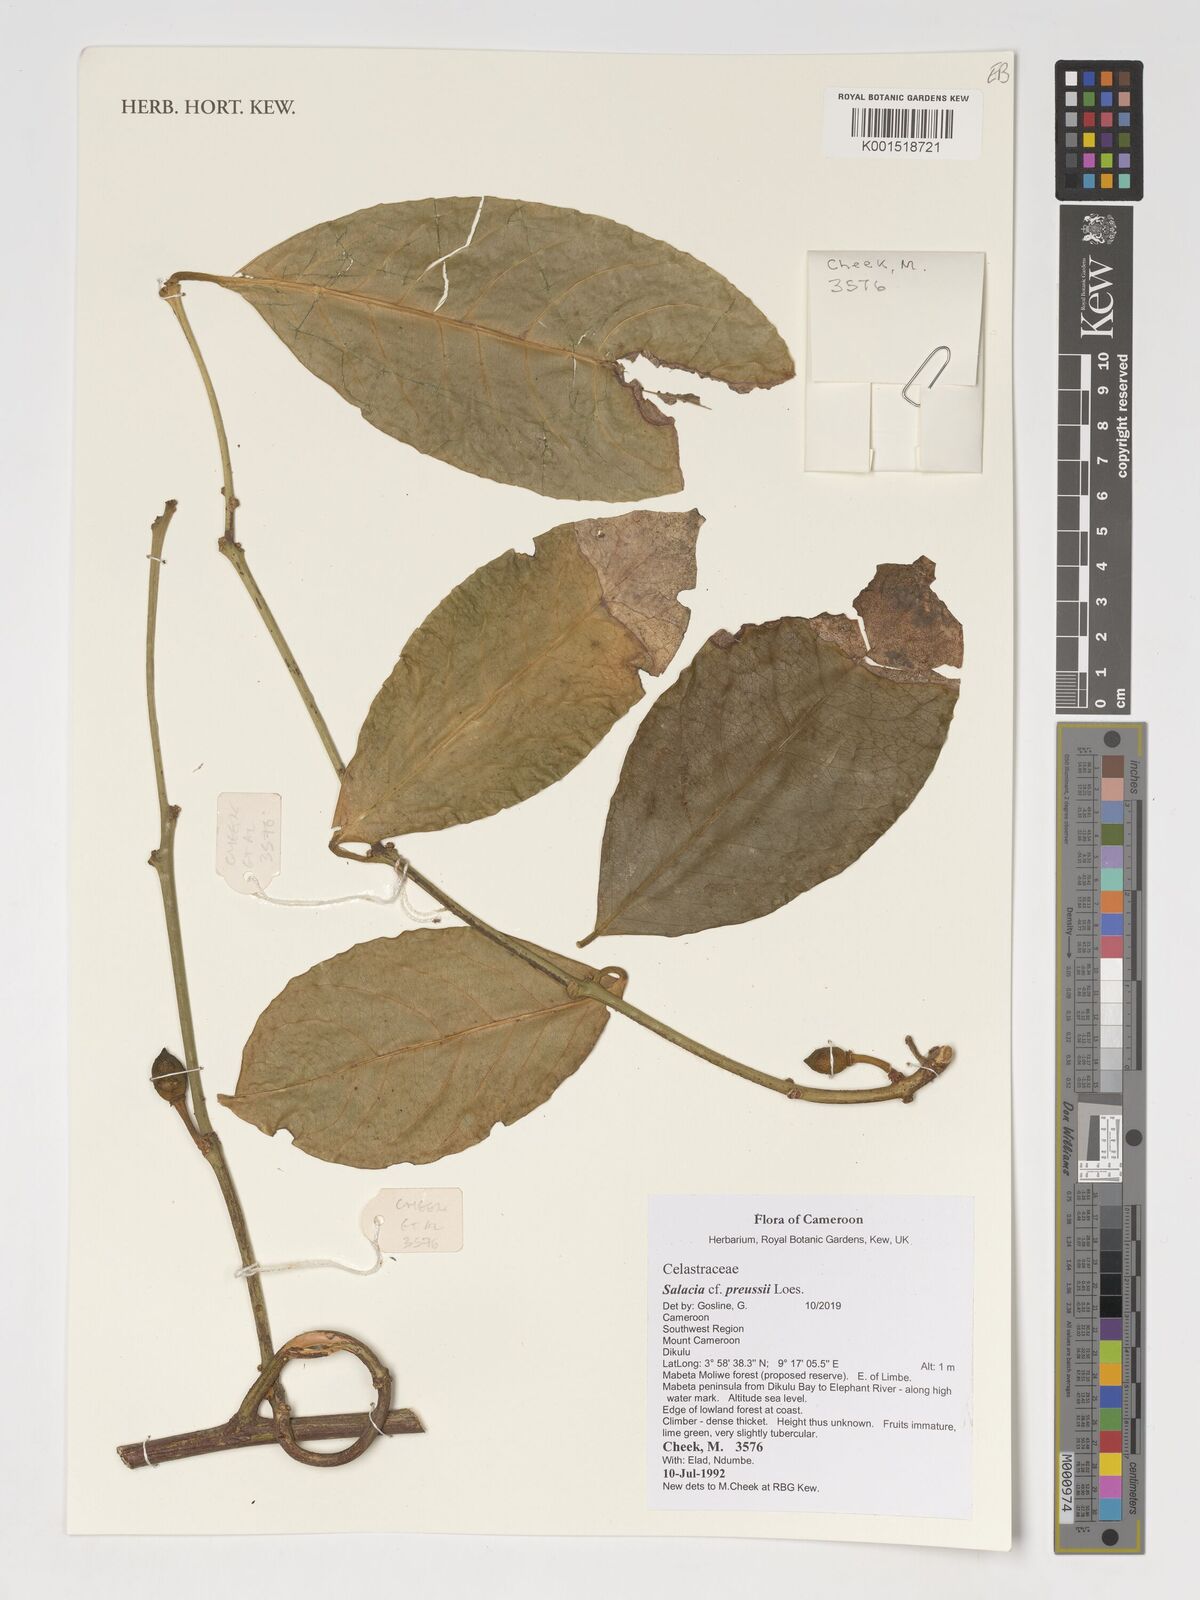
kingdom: Plantae
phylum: Tracheophyta
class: Magnoliopsida
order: Celastrales
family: Celastraceae
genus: Salacia
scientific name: Salacia preussii
